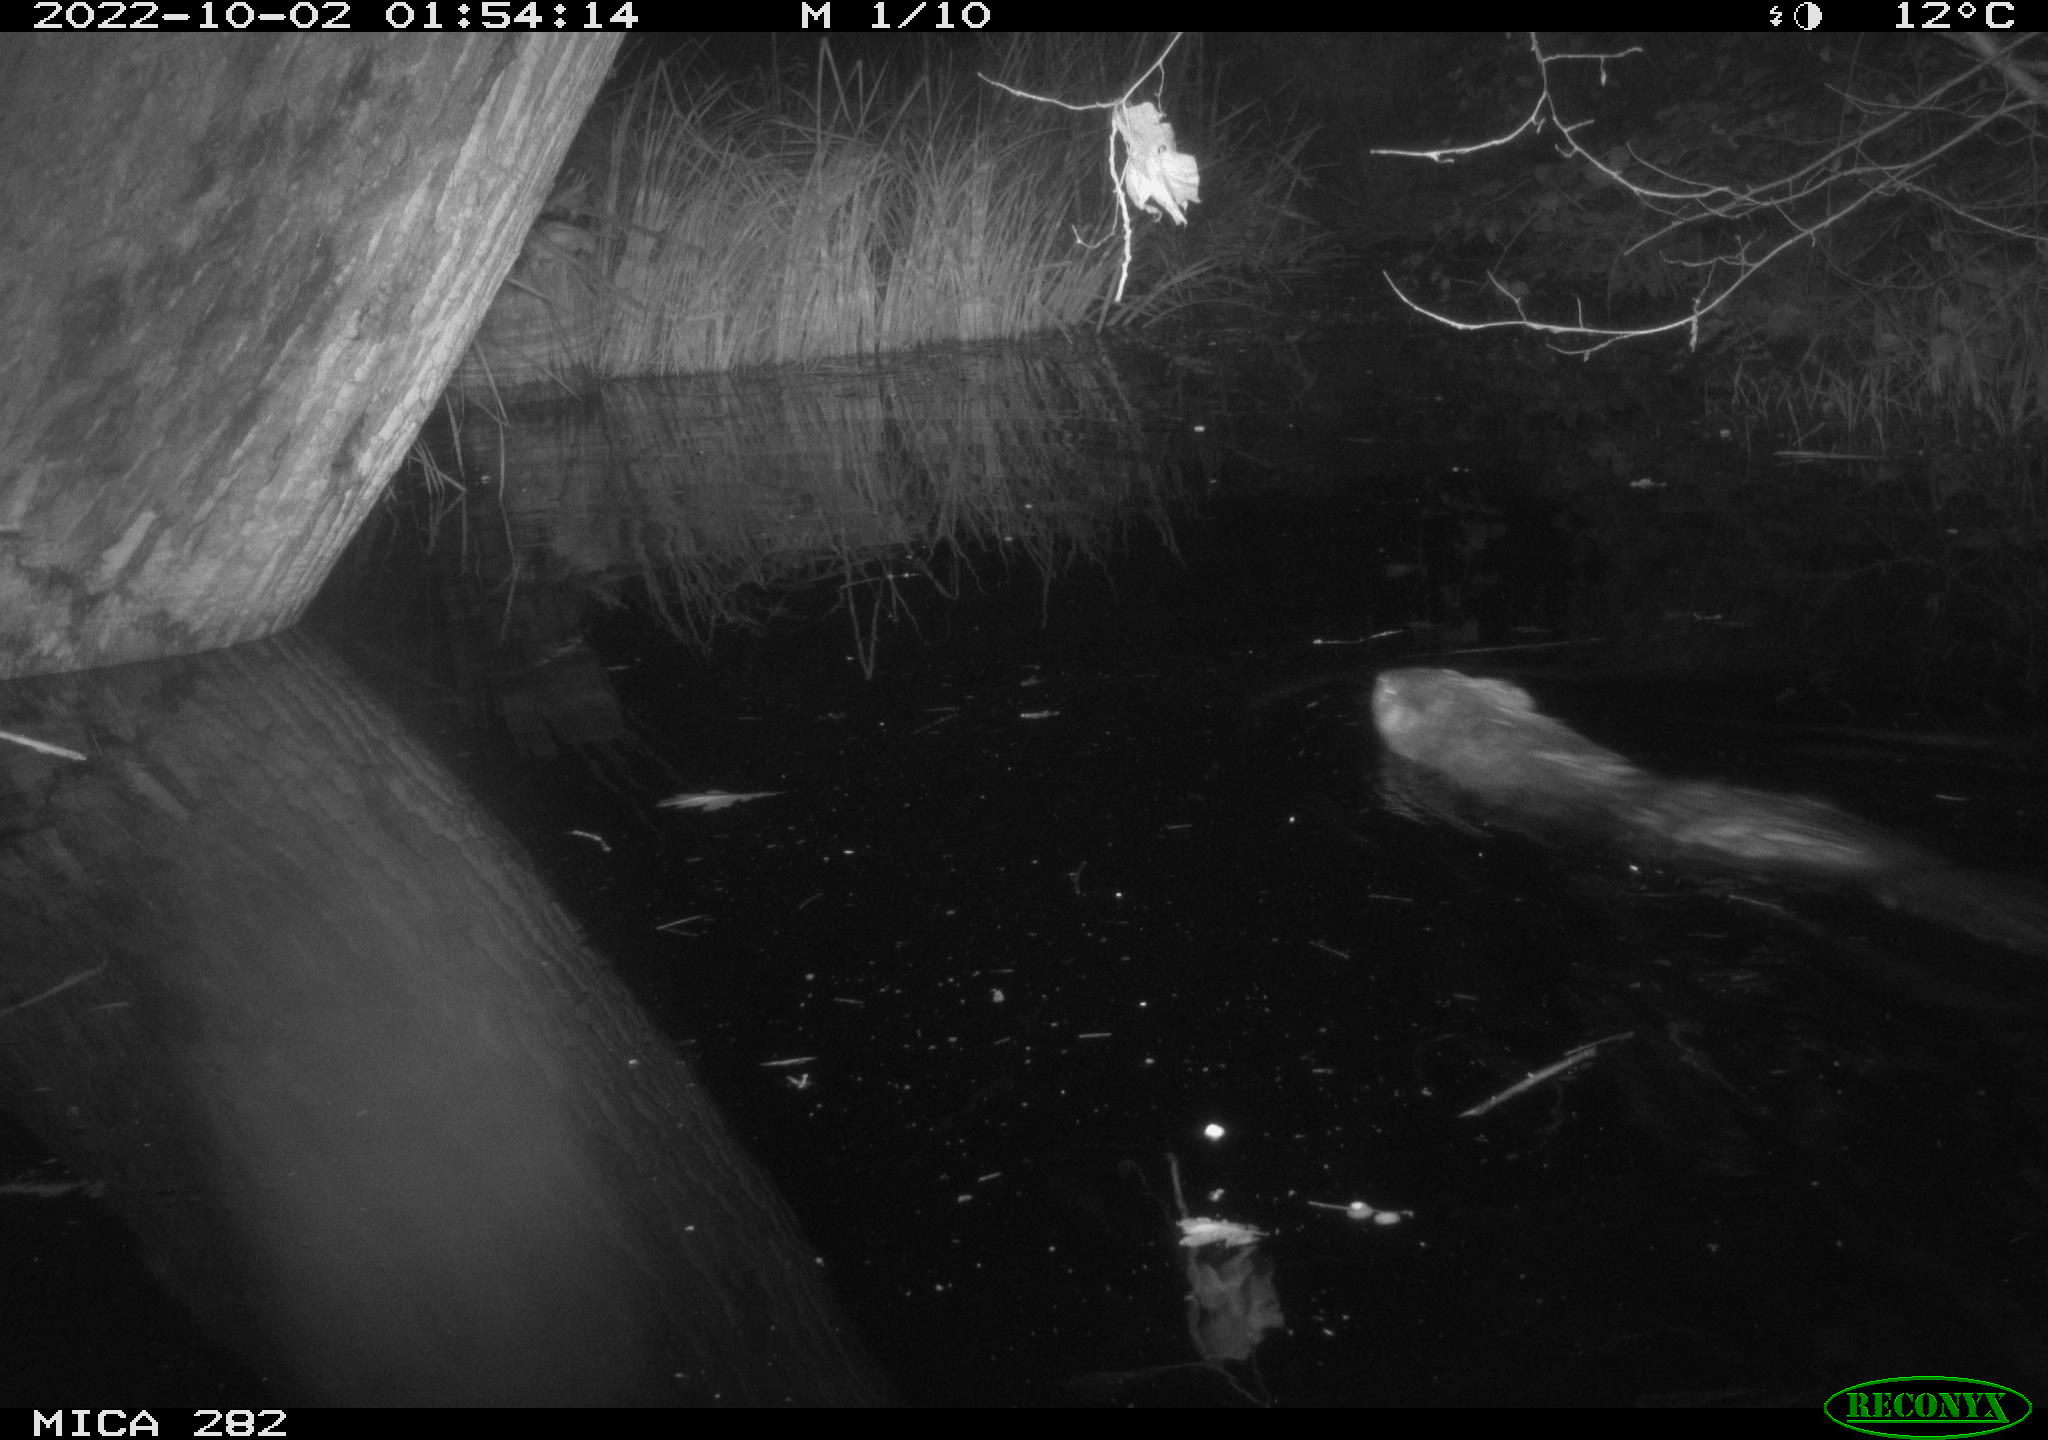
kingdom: Animalia
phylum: Chordata
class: Mammalia
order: Rodentia
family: Castoridae
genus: Castor
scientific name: Castor fiber
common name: Eurasian beaver
